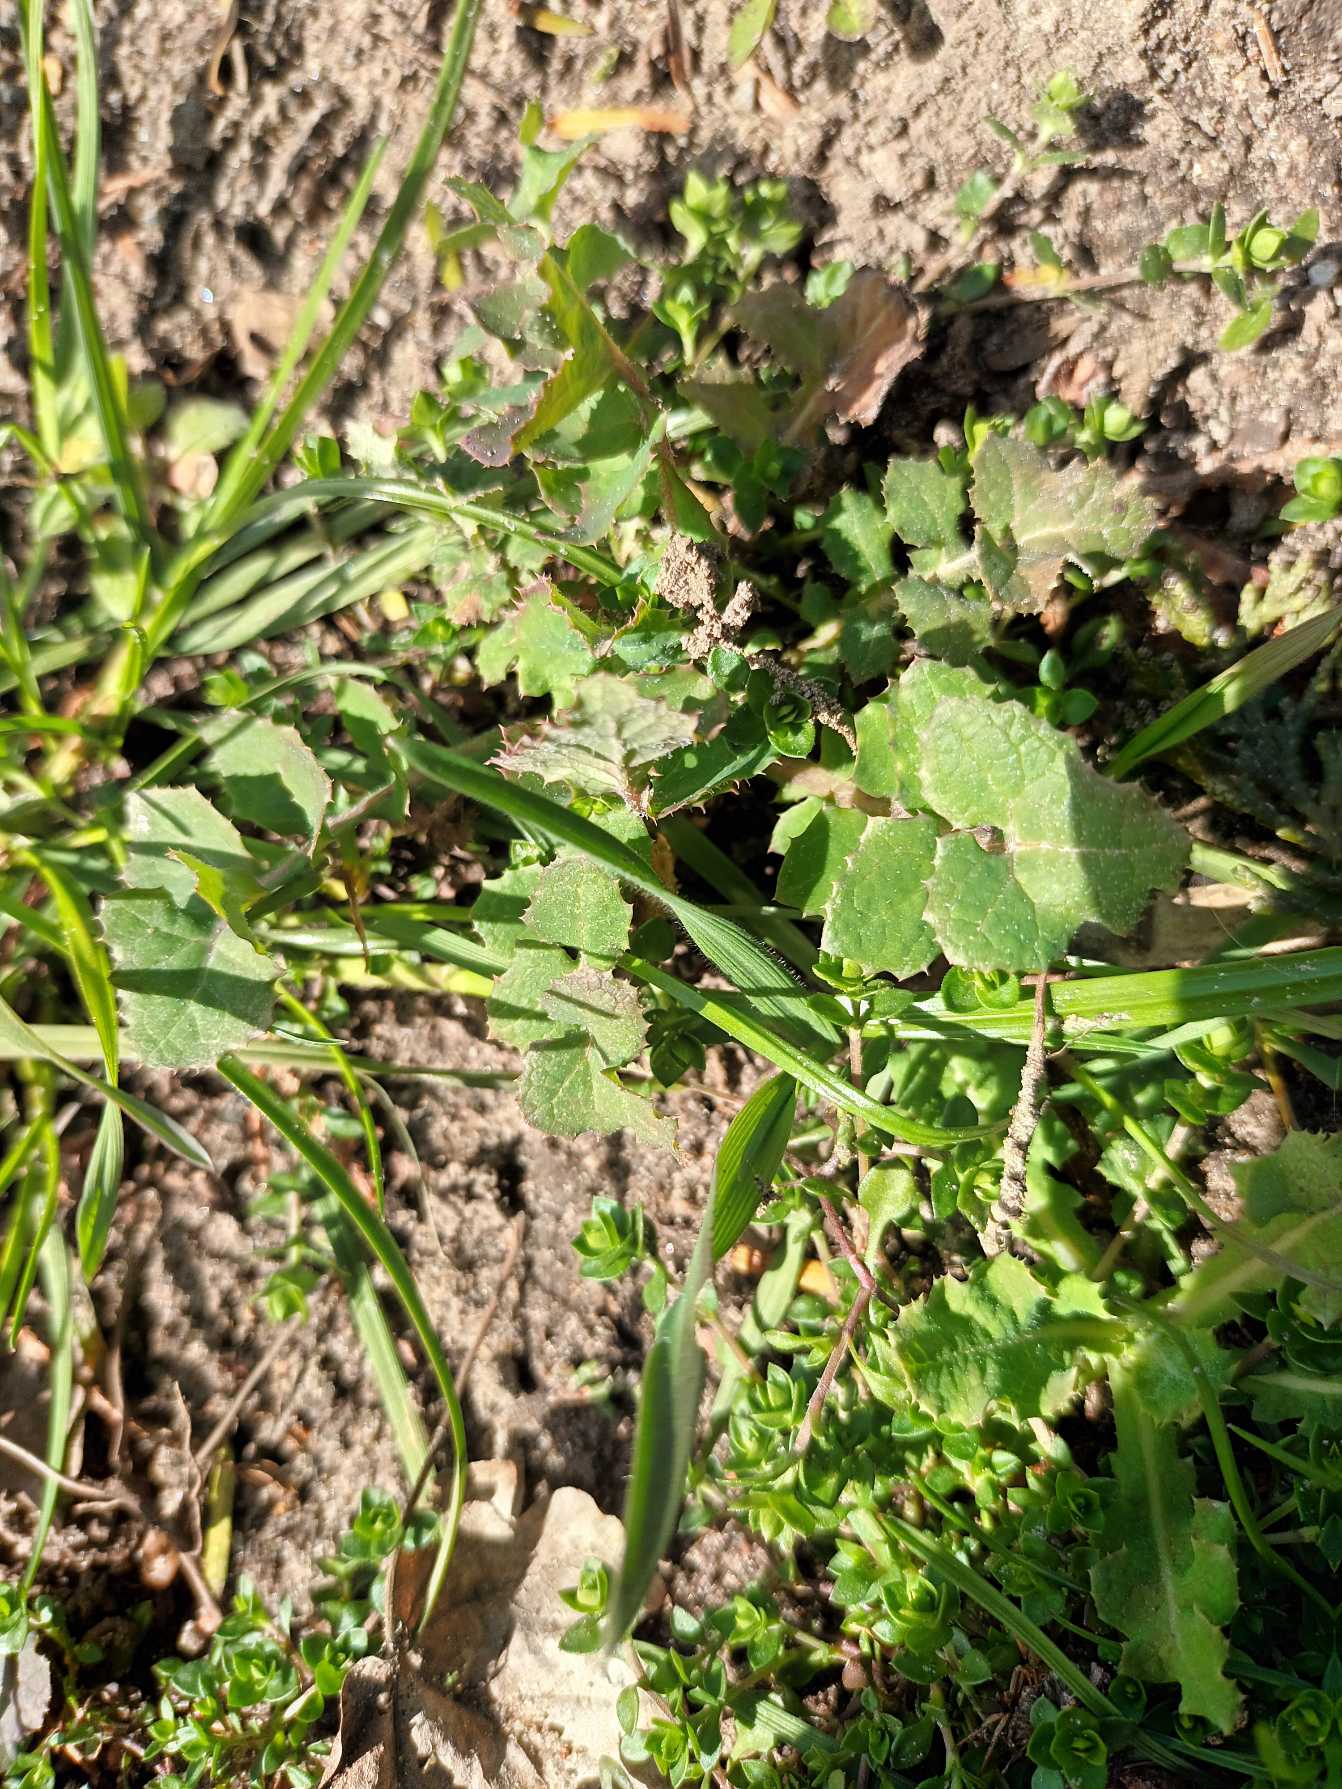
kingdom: Plantae
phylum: Tracheophyta
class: Magnoliopsida
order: Asterales
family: Asteraceae
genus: Sonchus
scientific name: Sonchus oleraceus
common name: Almindelig svinemælk
